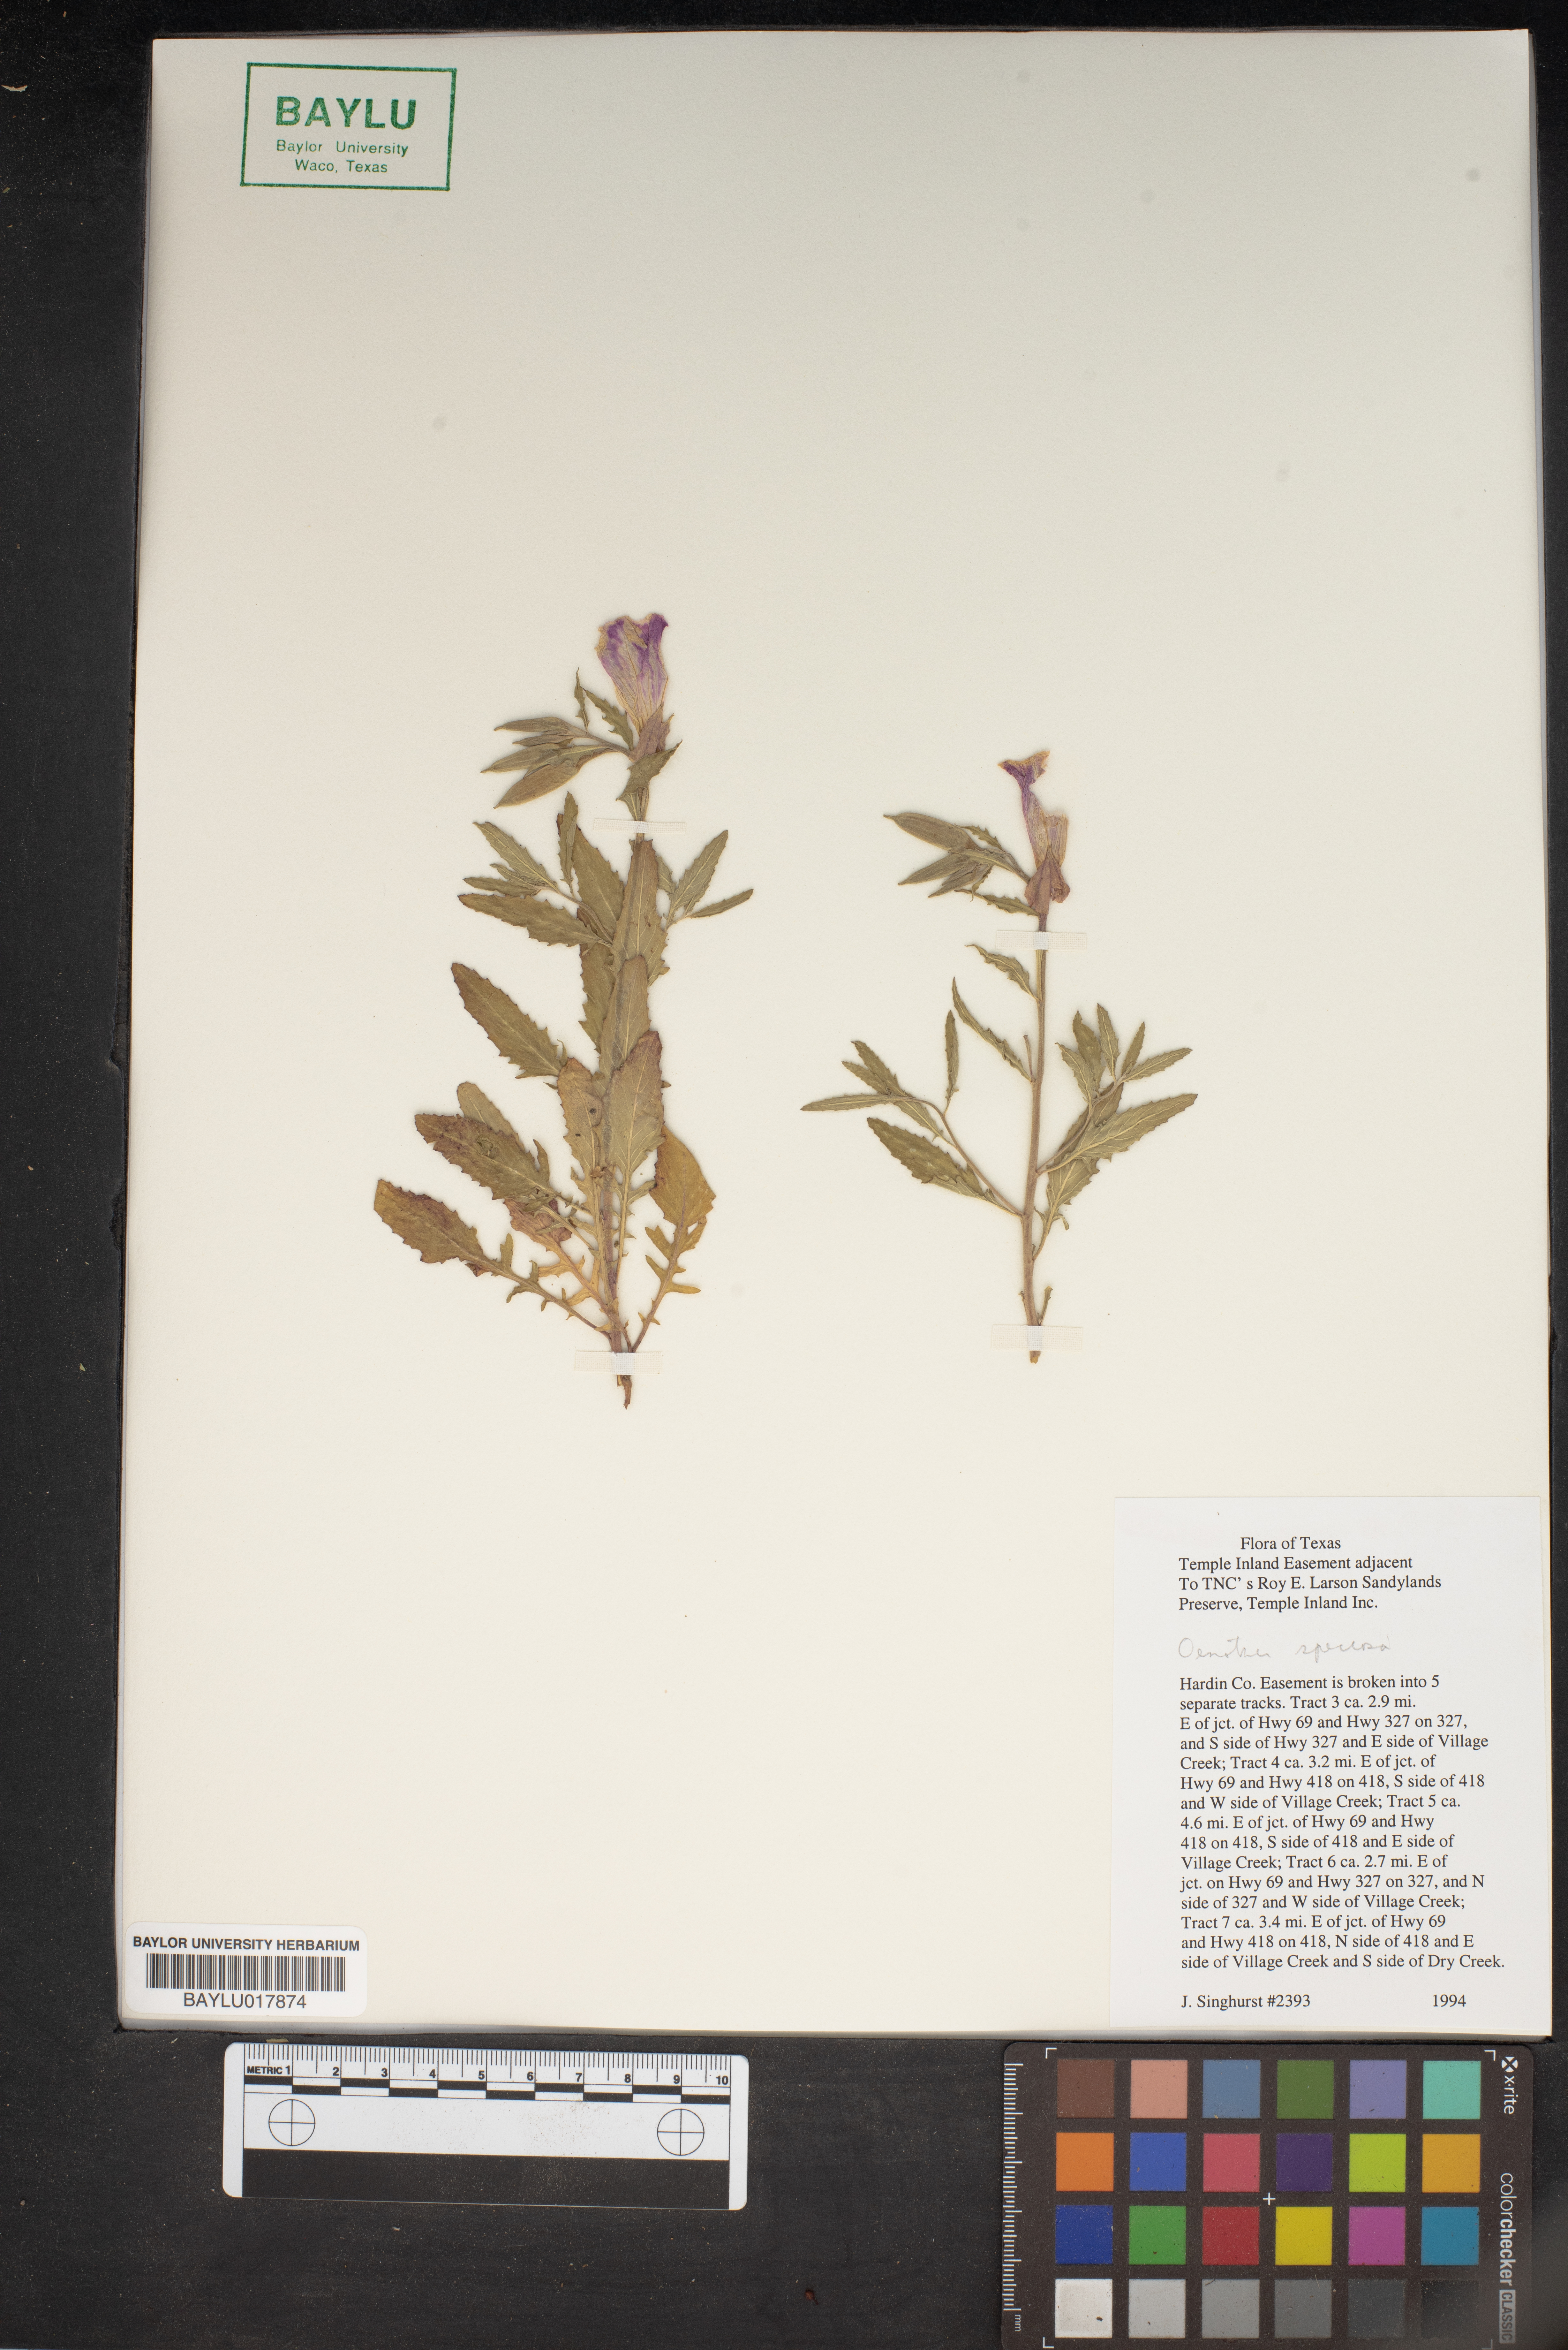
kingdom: Plantae
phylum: Tracheophyta
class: Magnoliopsida
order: Myrtales
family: Onagraceae
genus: Oenothera
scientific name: Oenothera speciosa
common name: White evening-primrose
